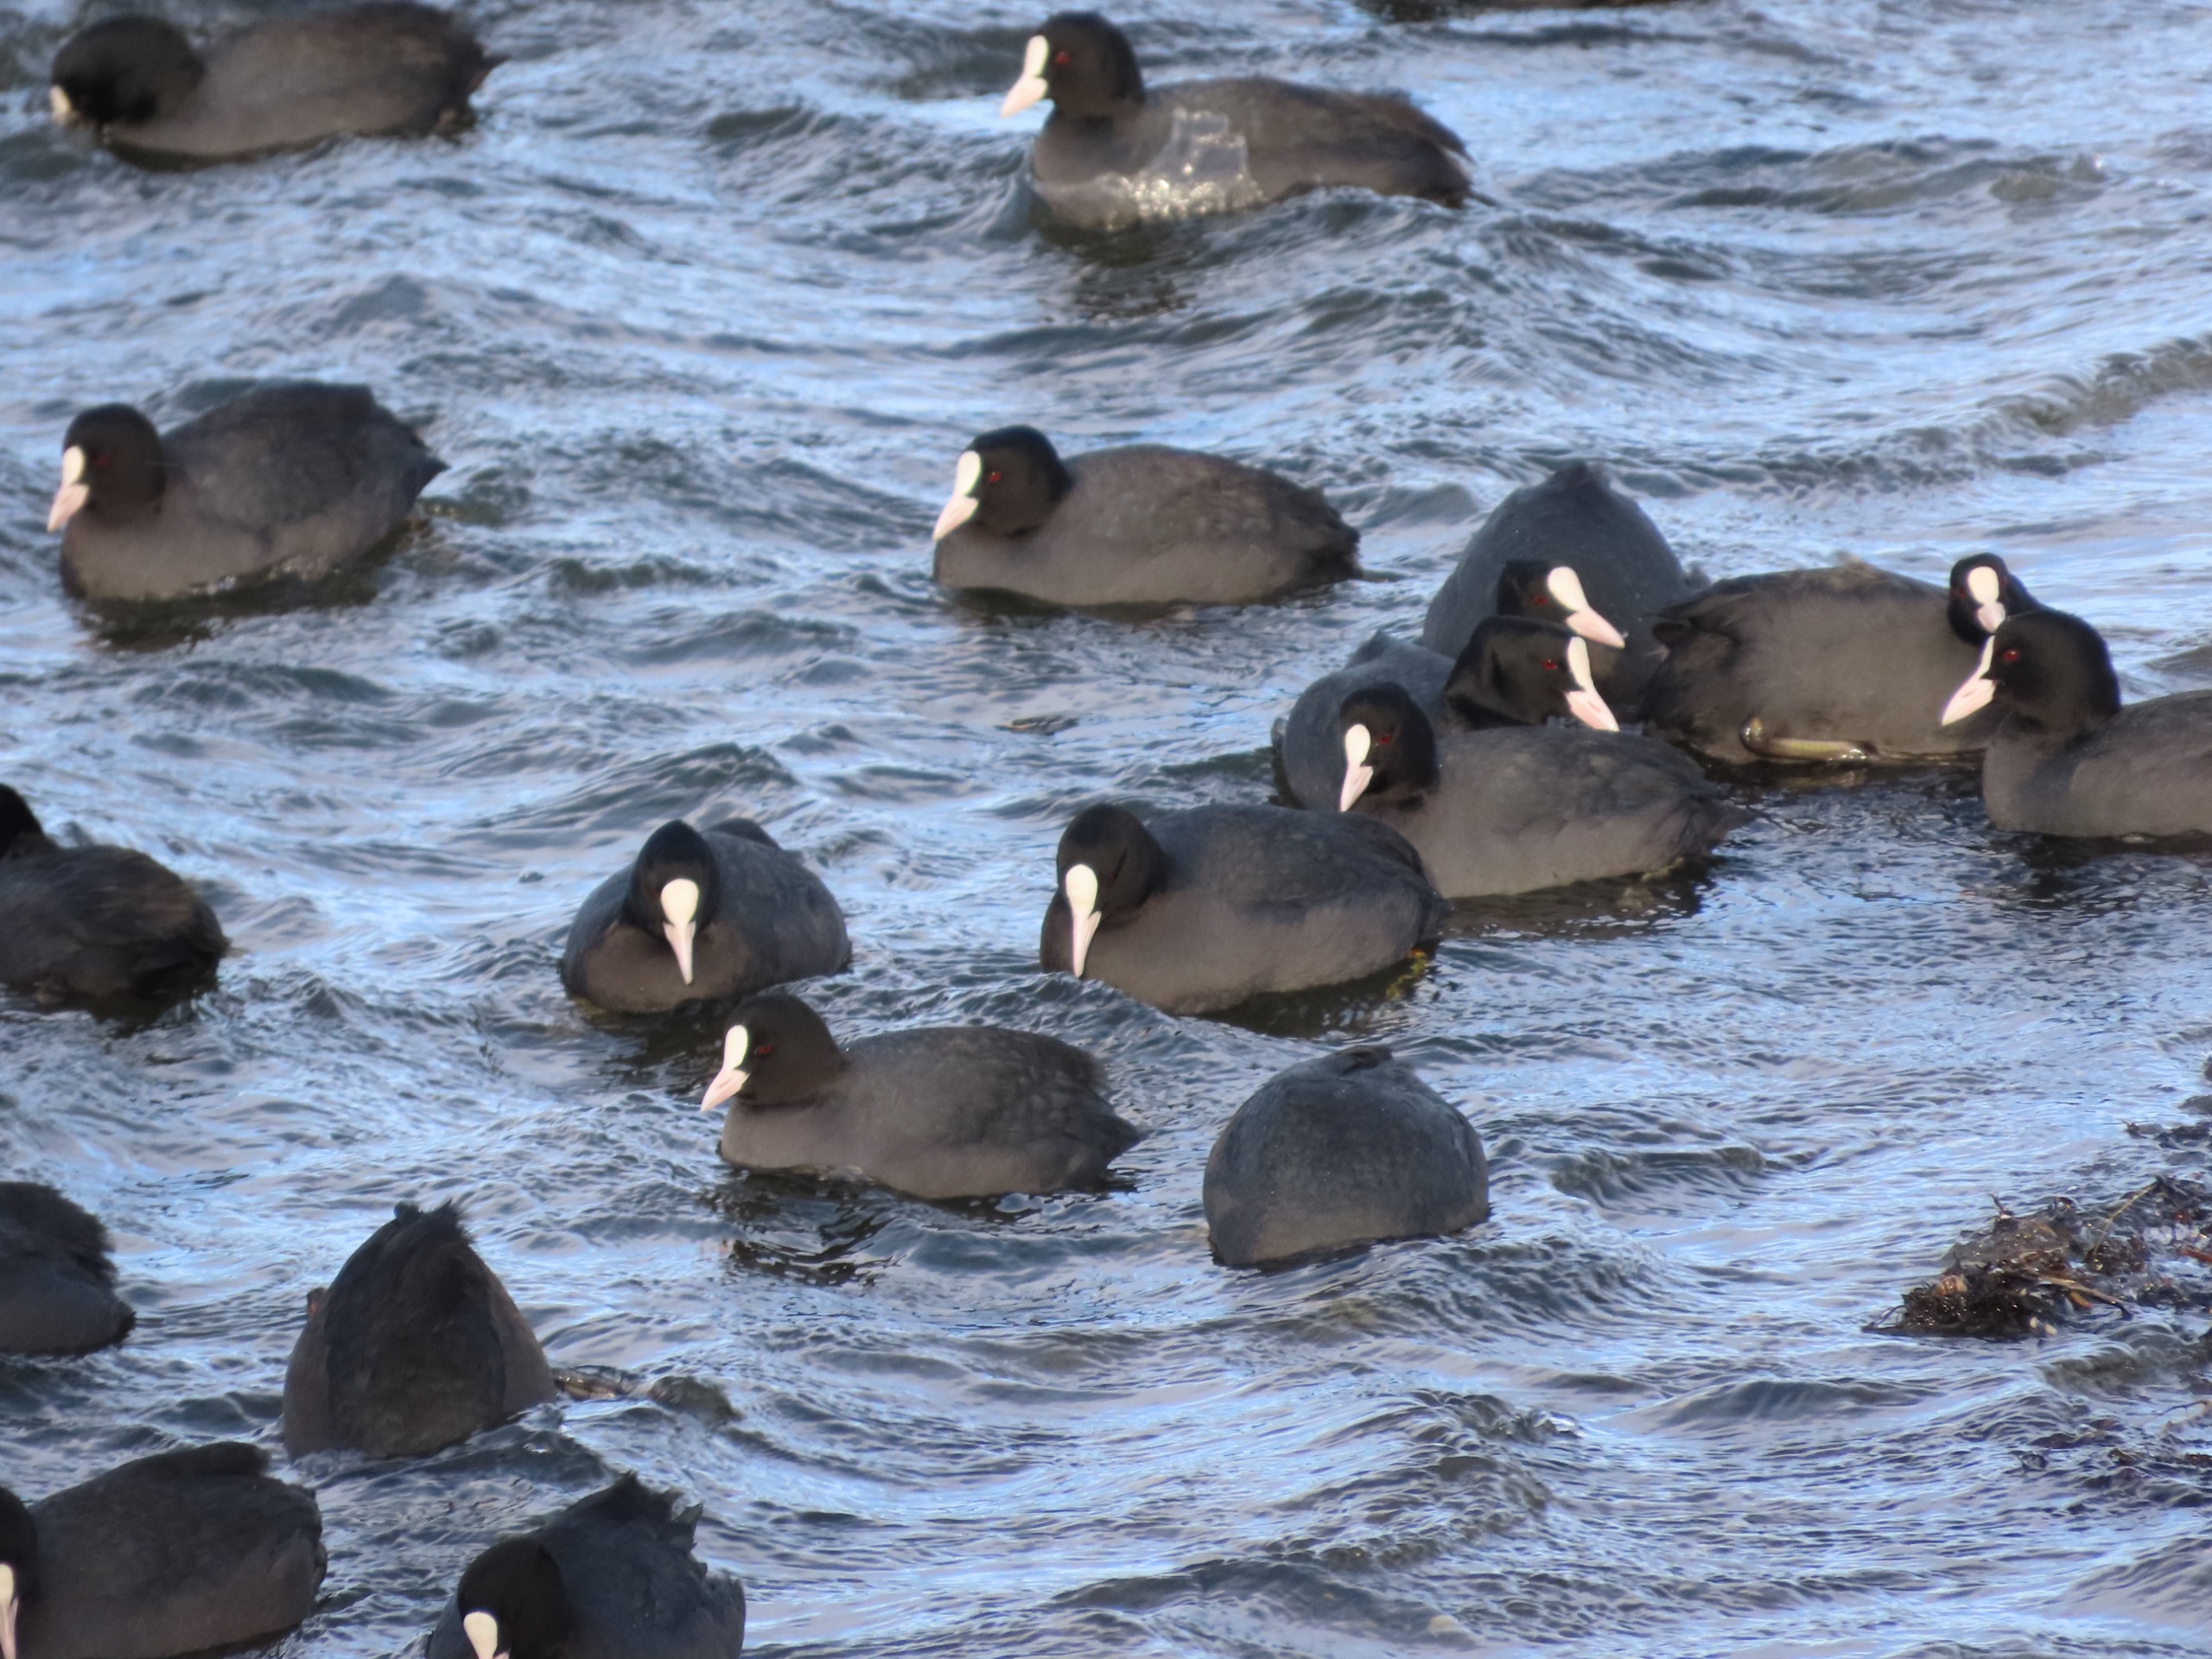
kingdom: Animalia
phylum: Chordata
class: Aves
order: Gruiformes
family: Rallidae
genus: Fulica
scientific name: Fulica atra
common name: Blishøne
